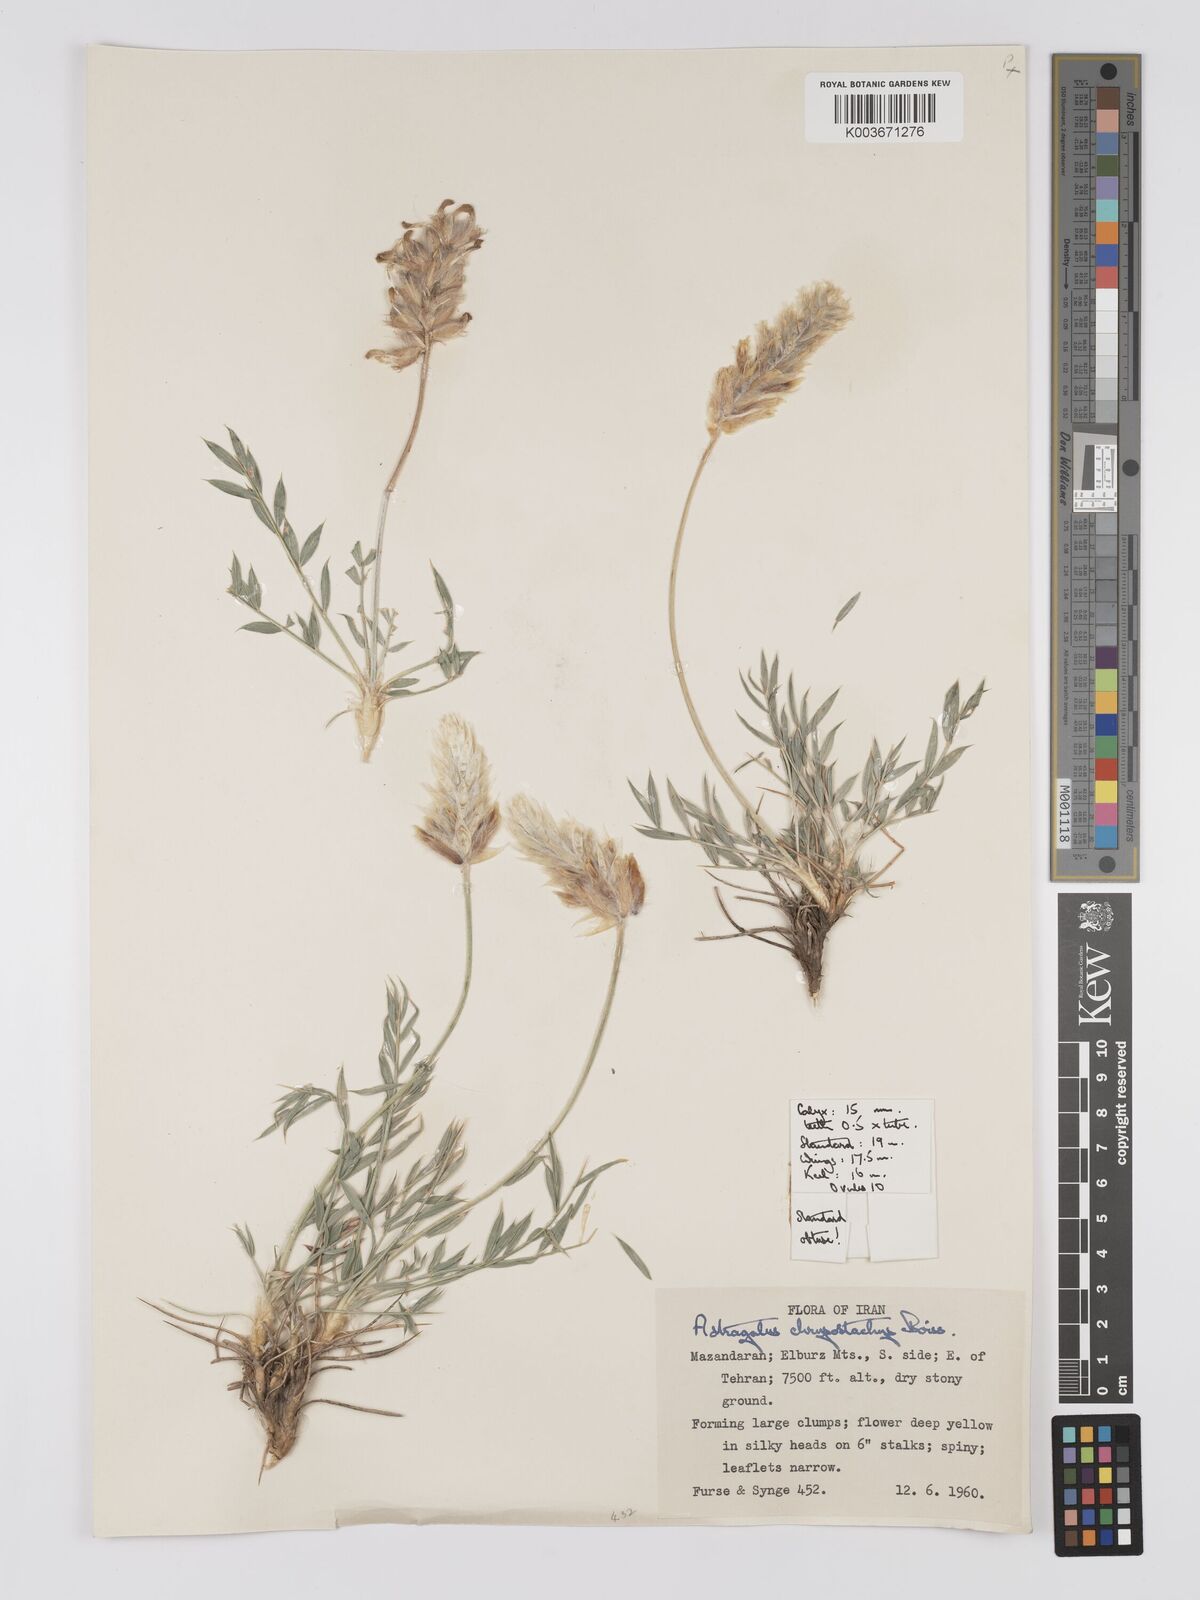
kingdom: Plantae
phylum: Tracheophyta
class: Magnoliopsida
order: Fabales
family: Fabaceae
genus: Astragalus
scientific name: Astragalus chrysostachys
